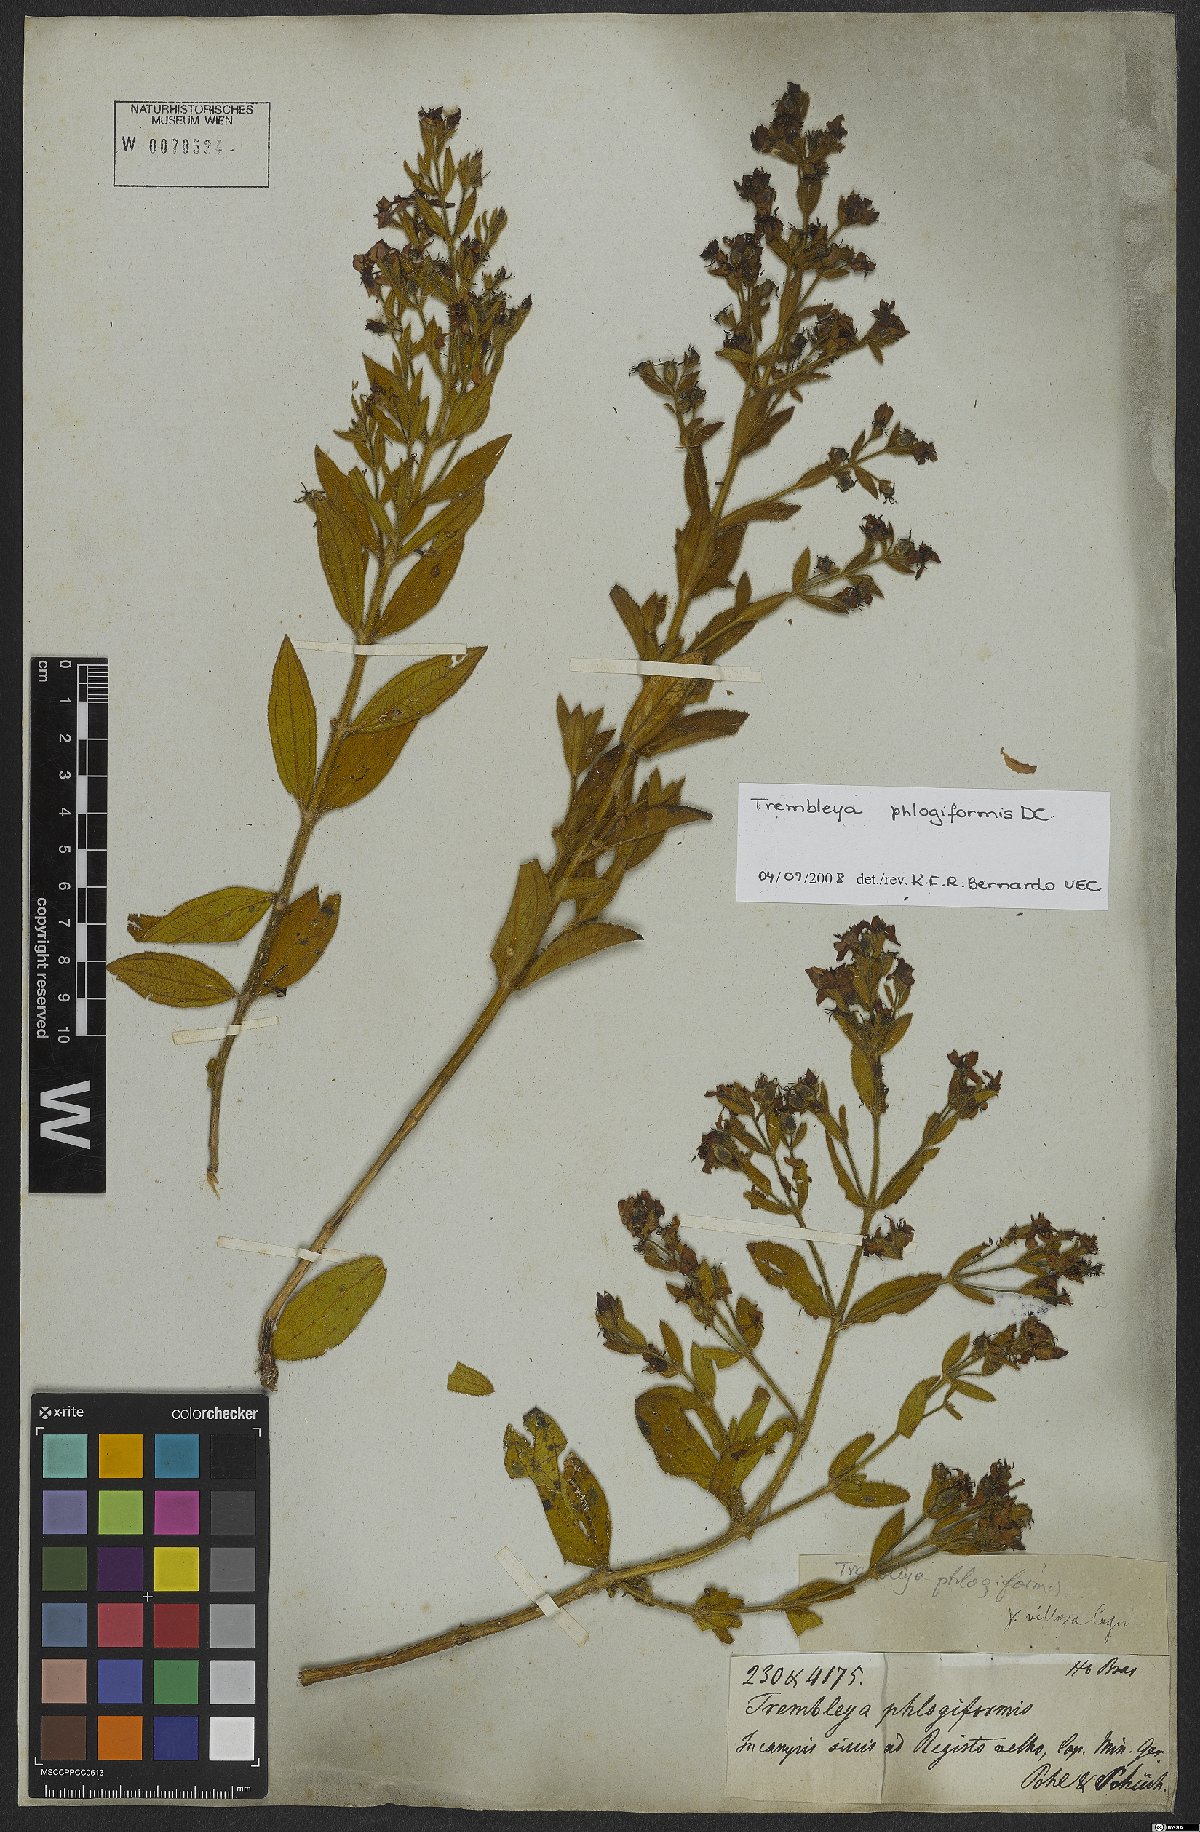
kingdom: Plantae
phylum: Tracheophyta
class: Magnoliopsida
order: Myrtales
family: Melastomataceae
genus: Microlicia
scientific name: Microlicia phlogiformis
